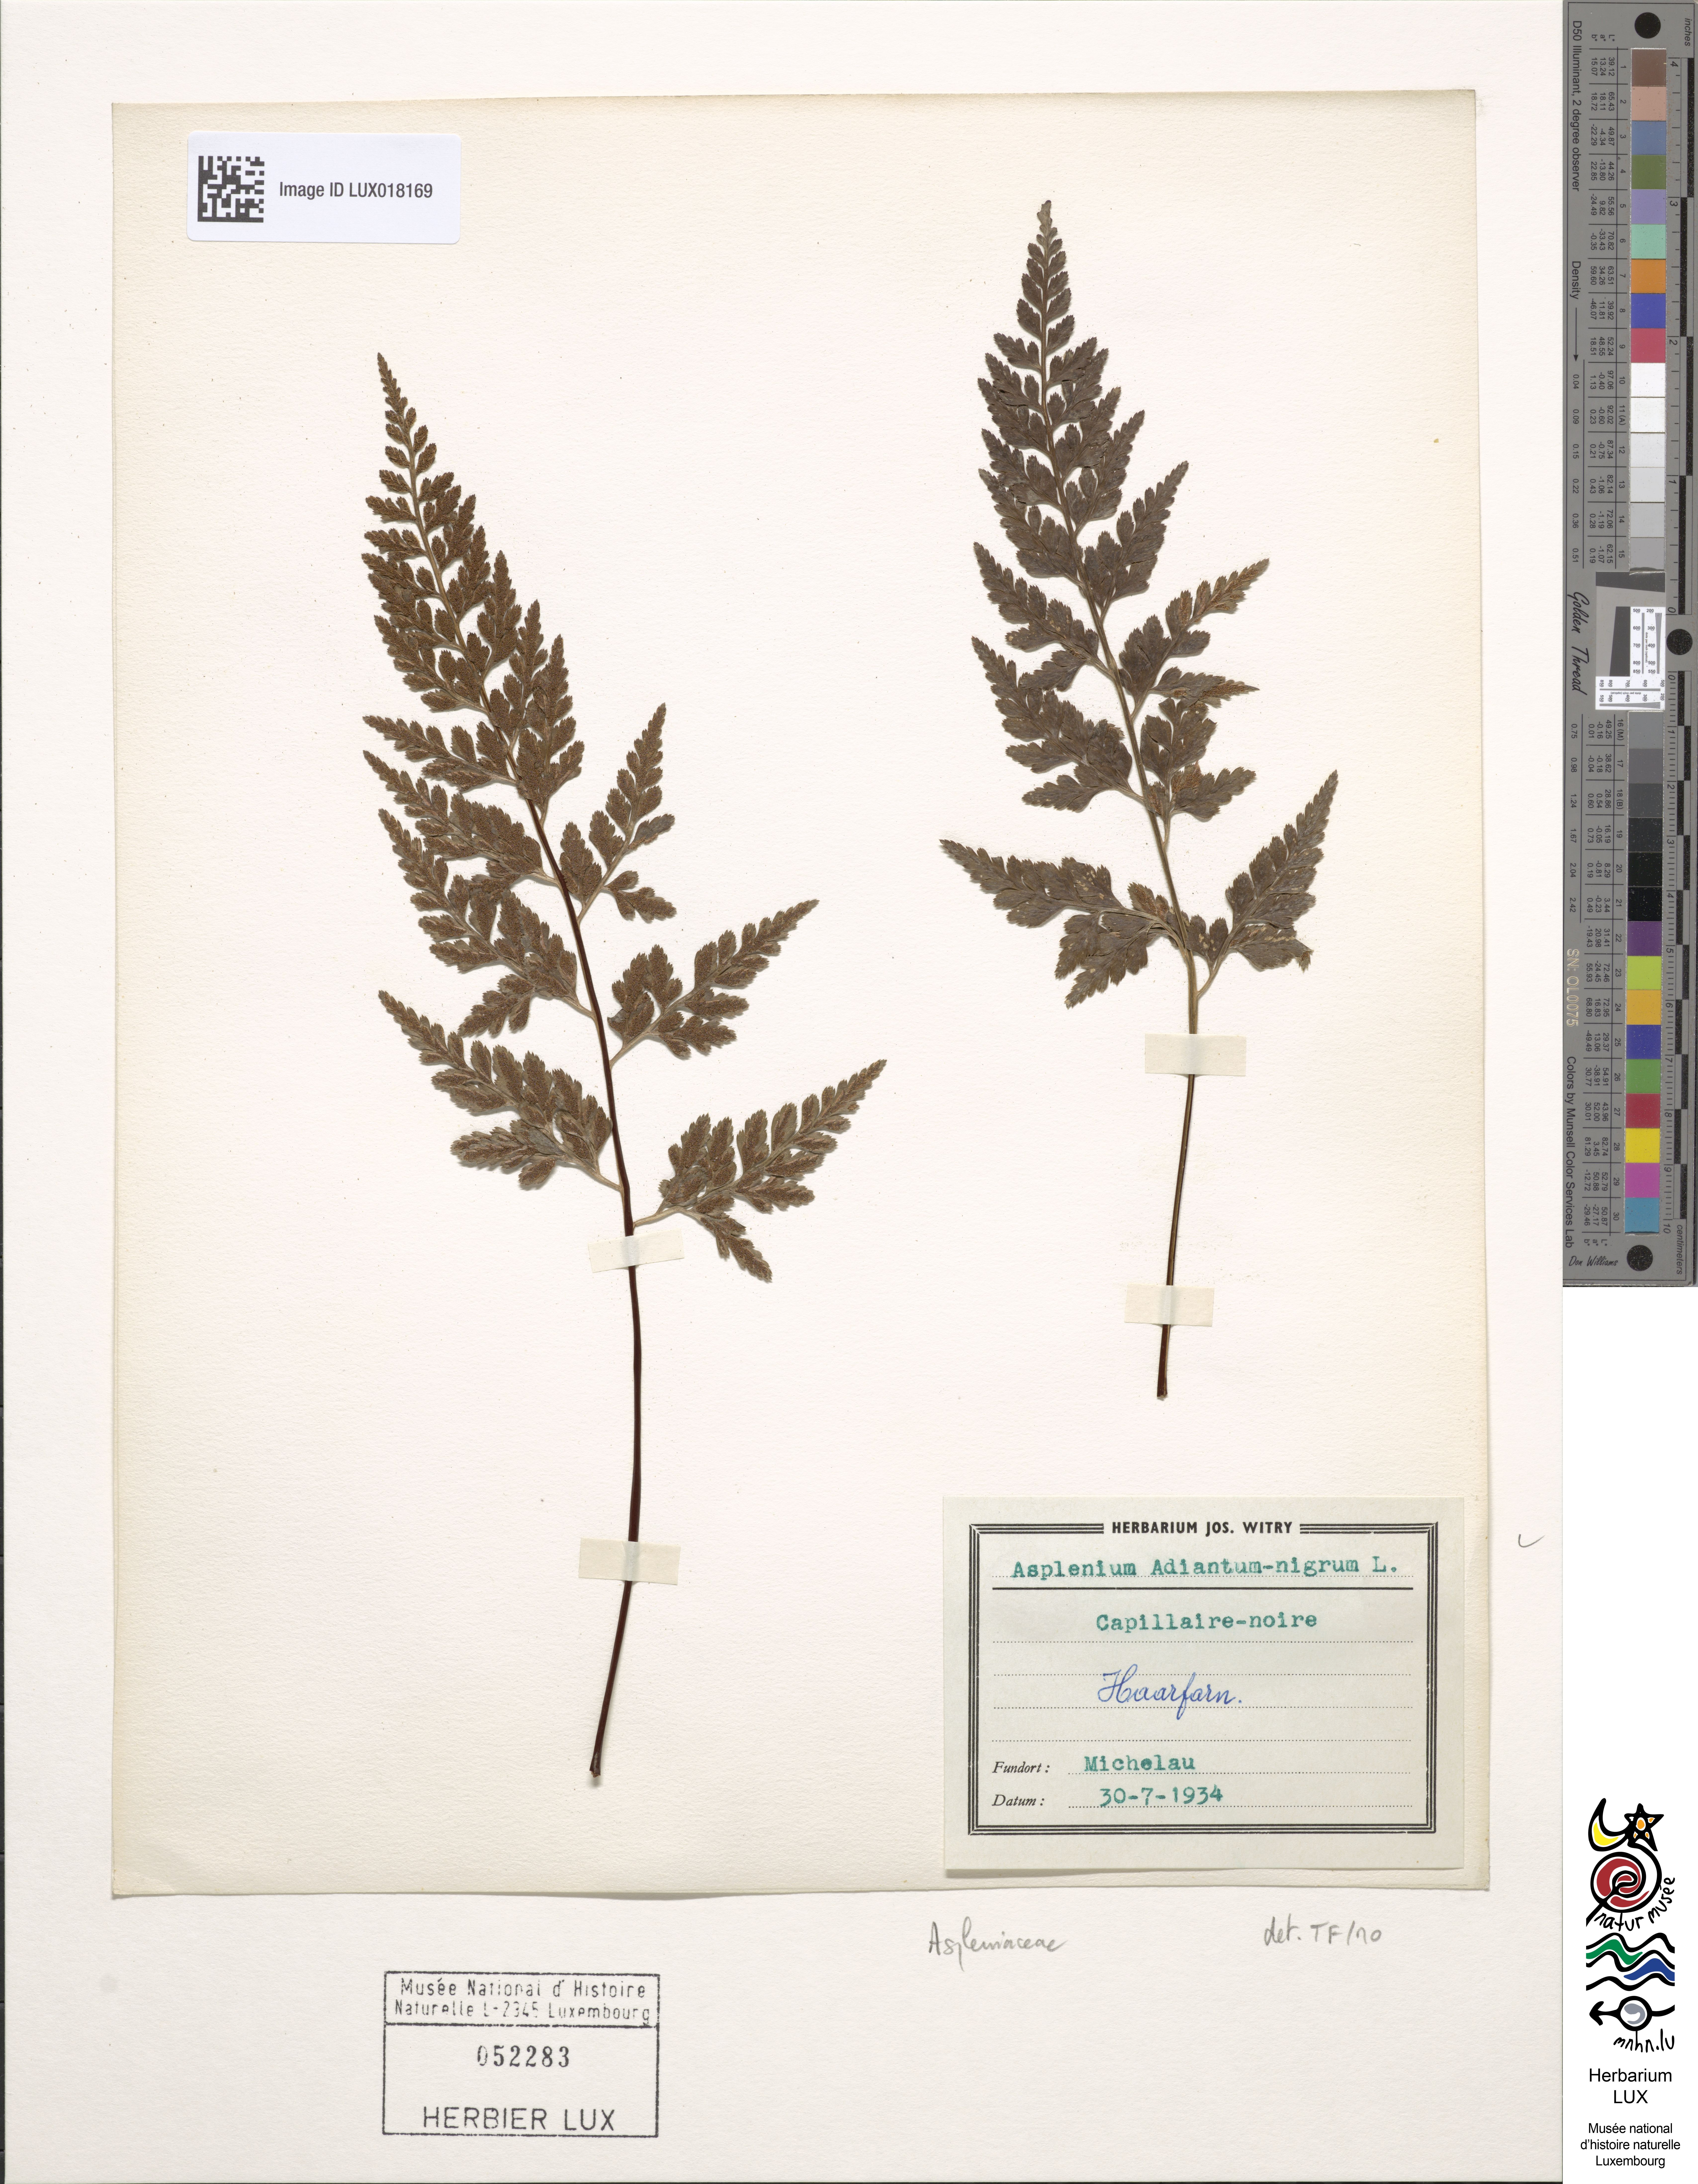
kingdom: Plantae
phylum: Tracheophyta
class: Polypodiopsida
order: Polypodiales
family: Aspleniaceae
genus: Asplenium
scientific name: Asplenium adiantum-nigrum
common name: Black spleenwort
